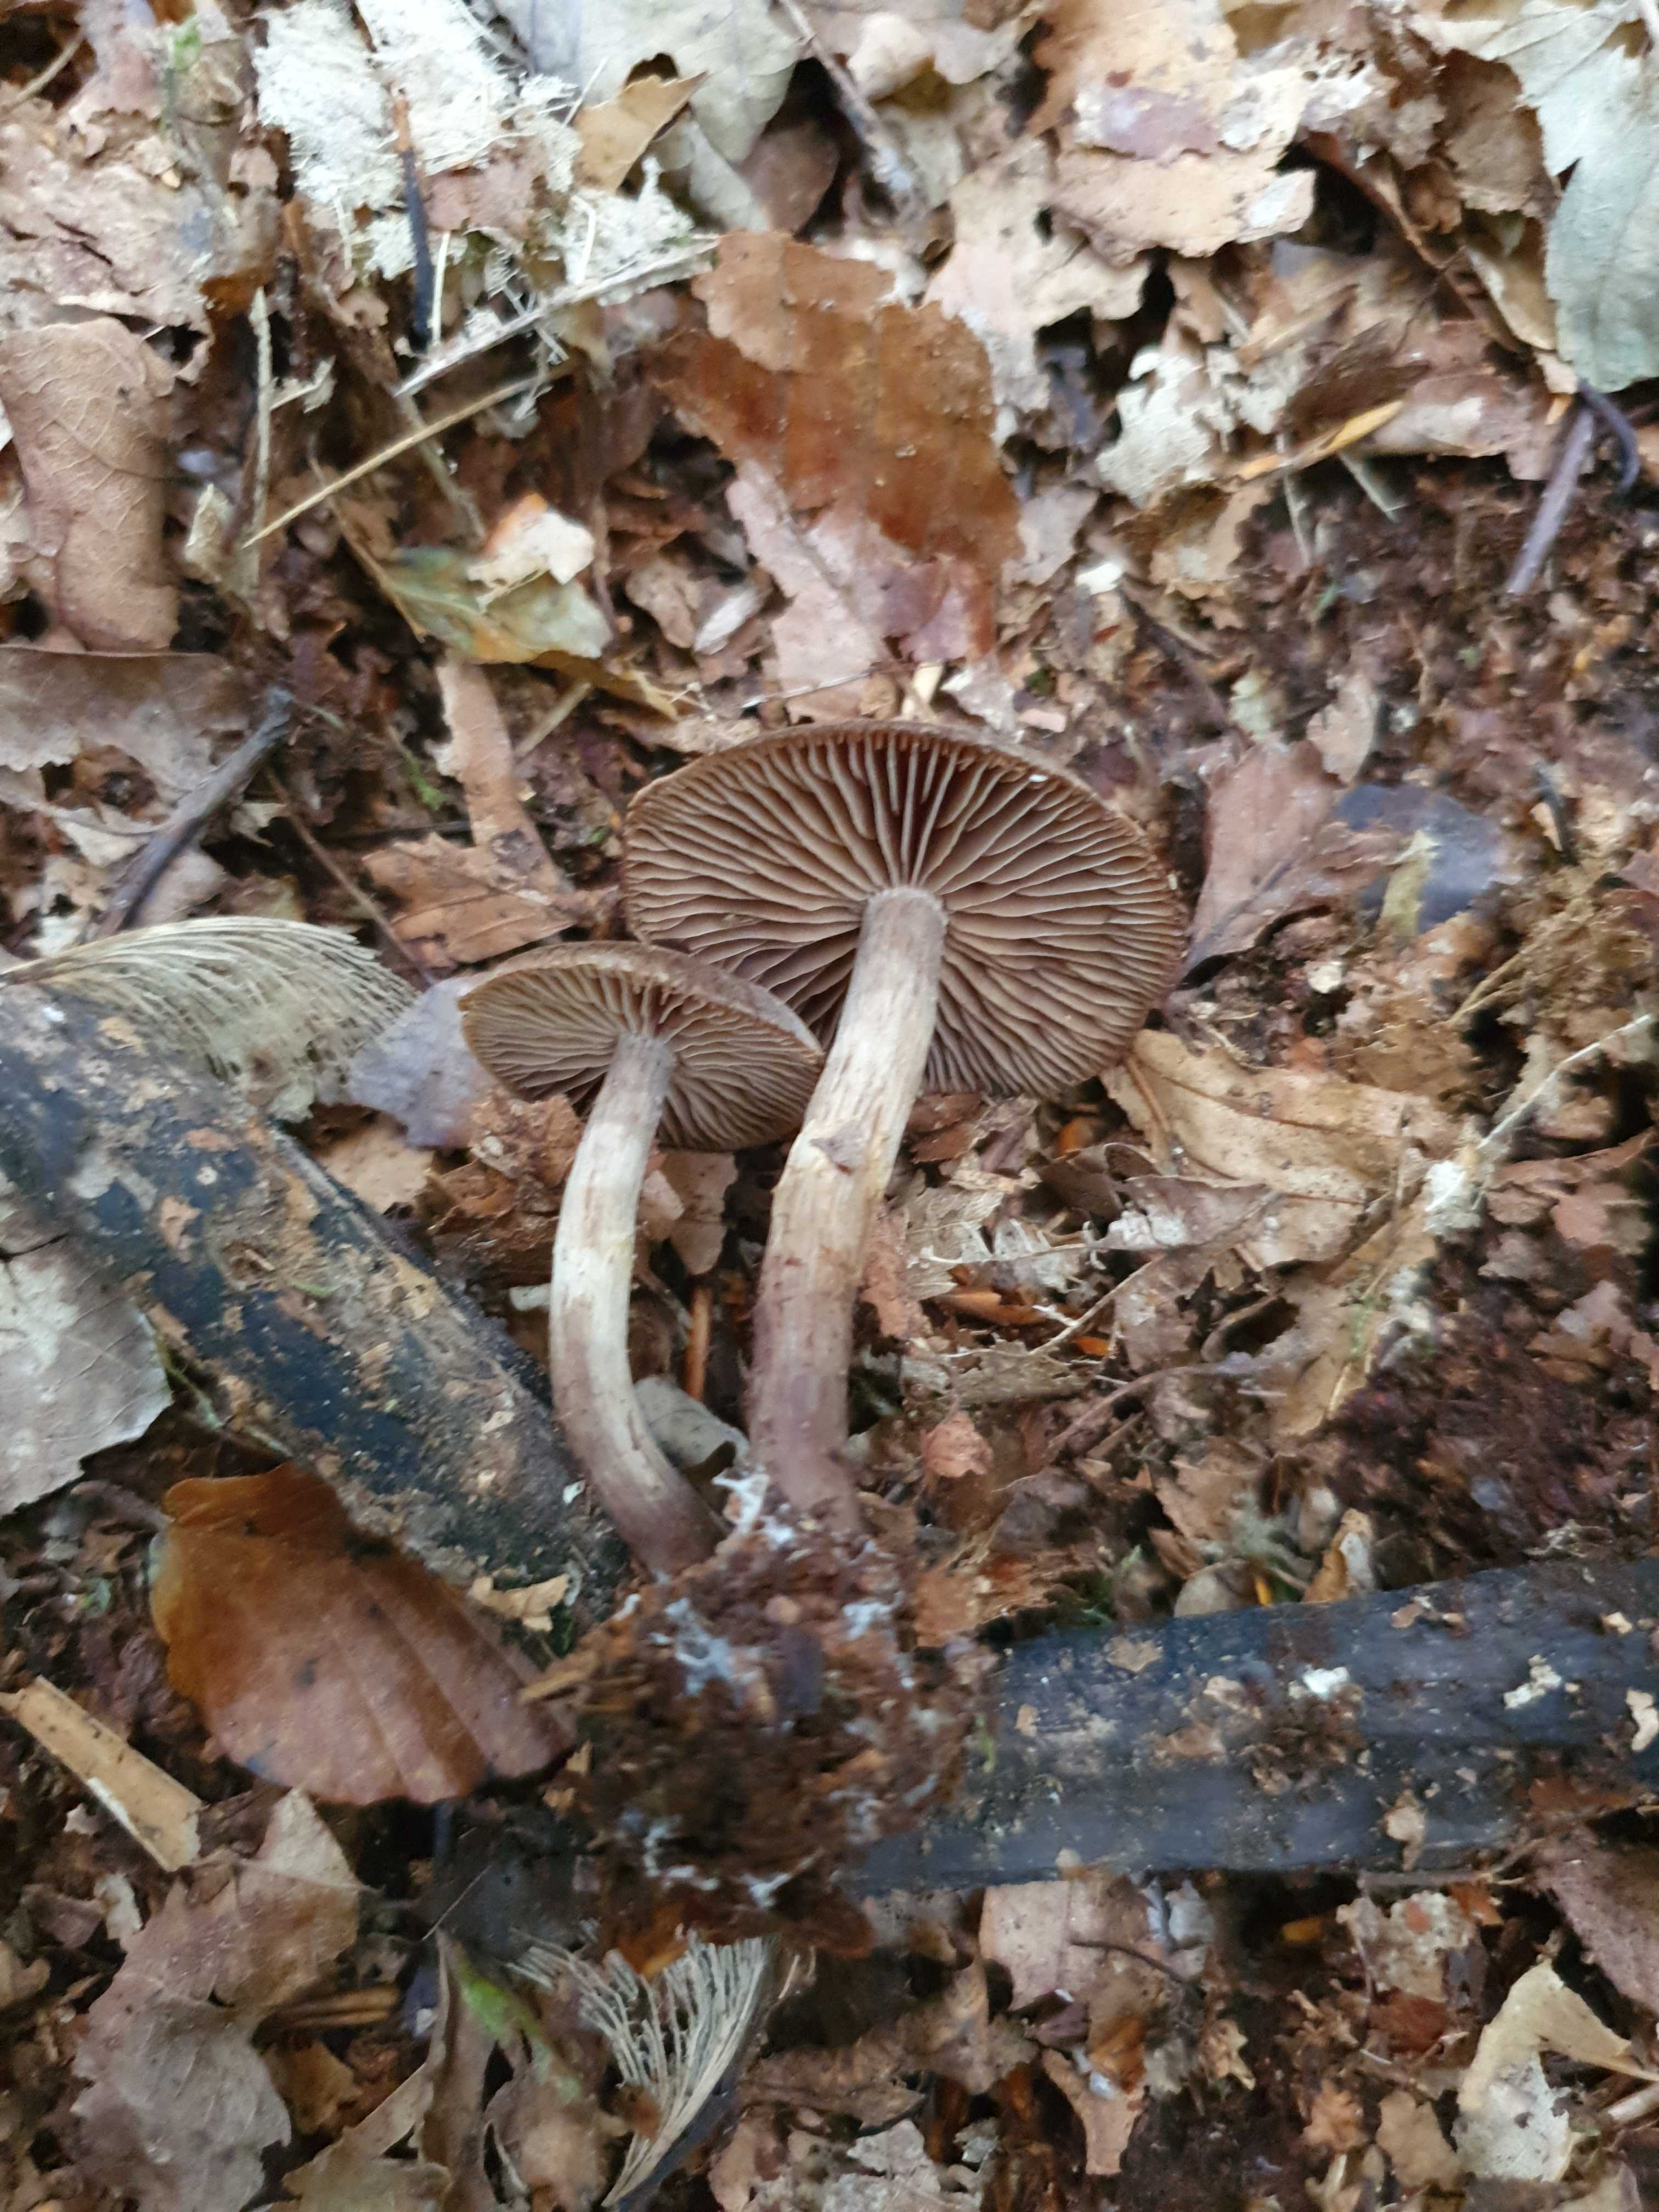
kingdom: Fungi
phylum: Basidiomycota
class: Agaricomycetes
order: Agaricales
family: Cortinariaceae
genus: Cortinarius
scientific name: Cortinarius umbrinolens
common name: mørk slørhat
